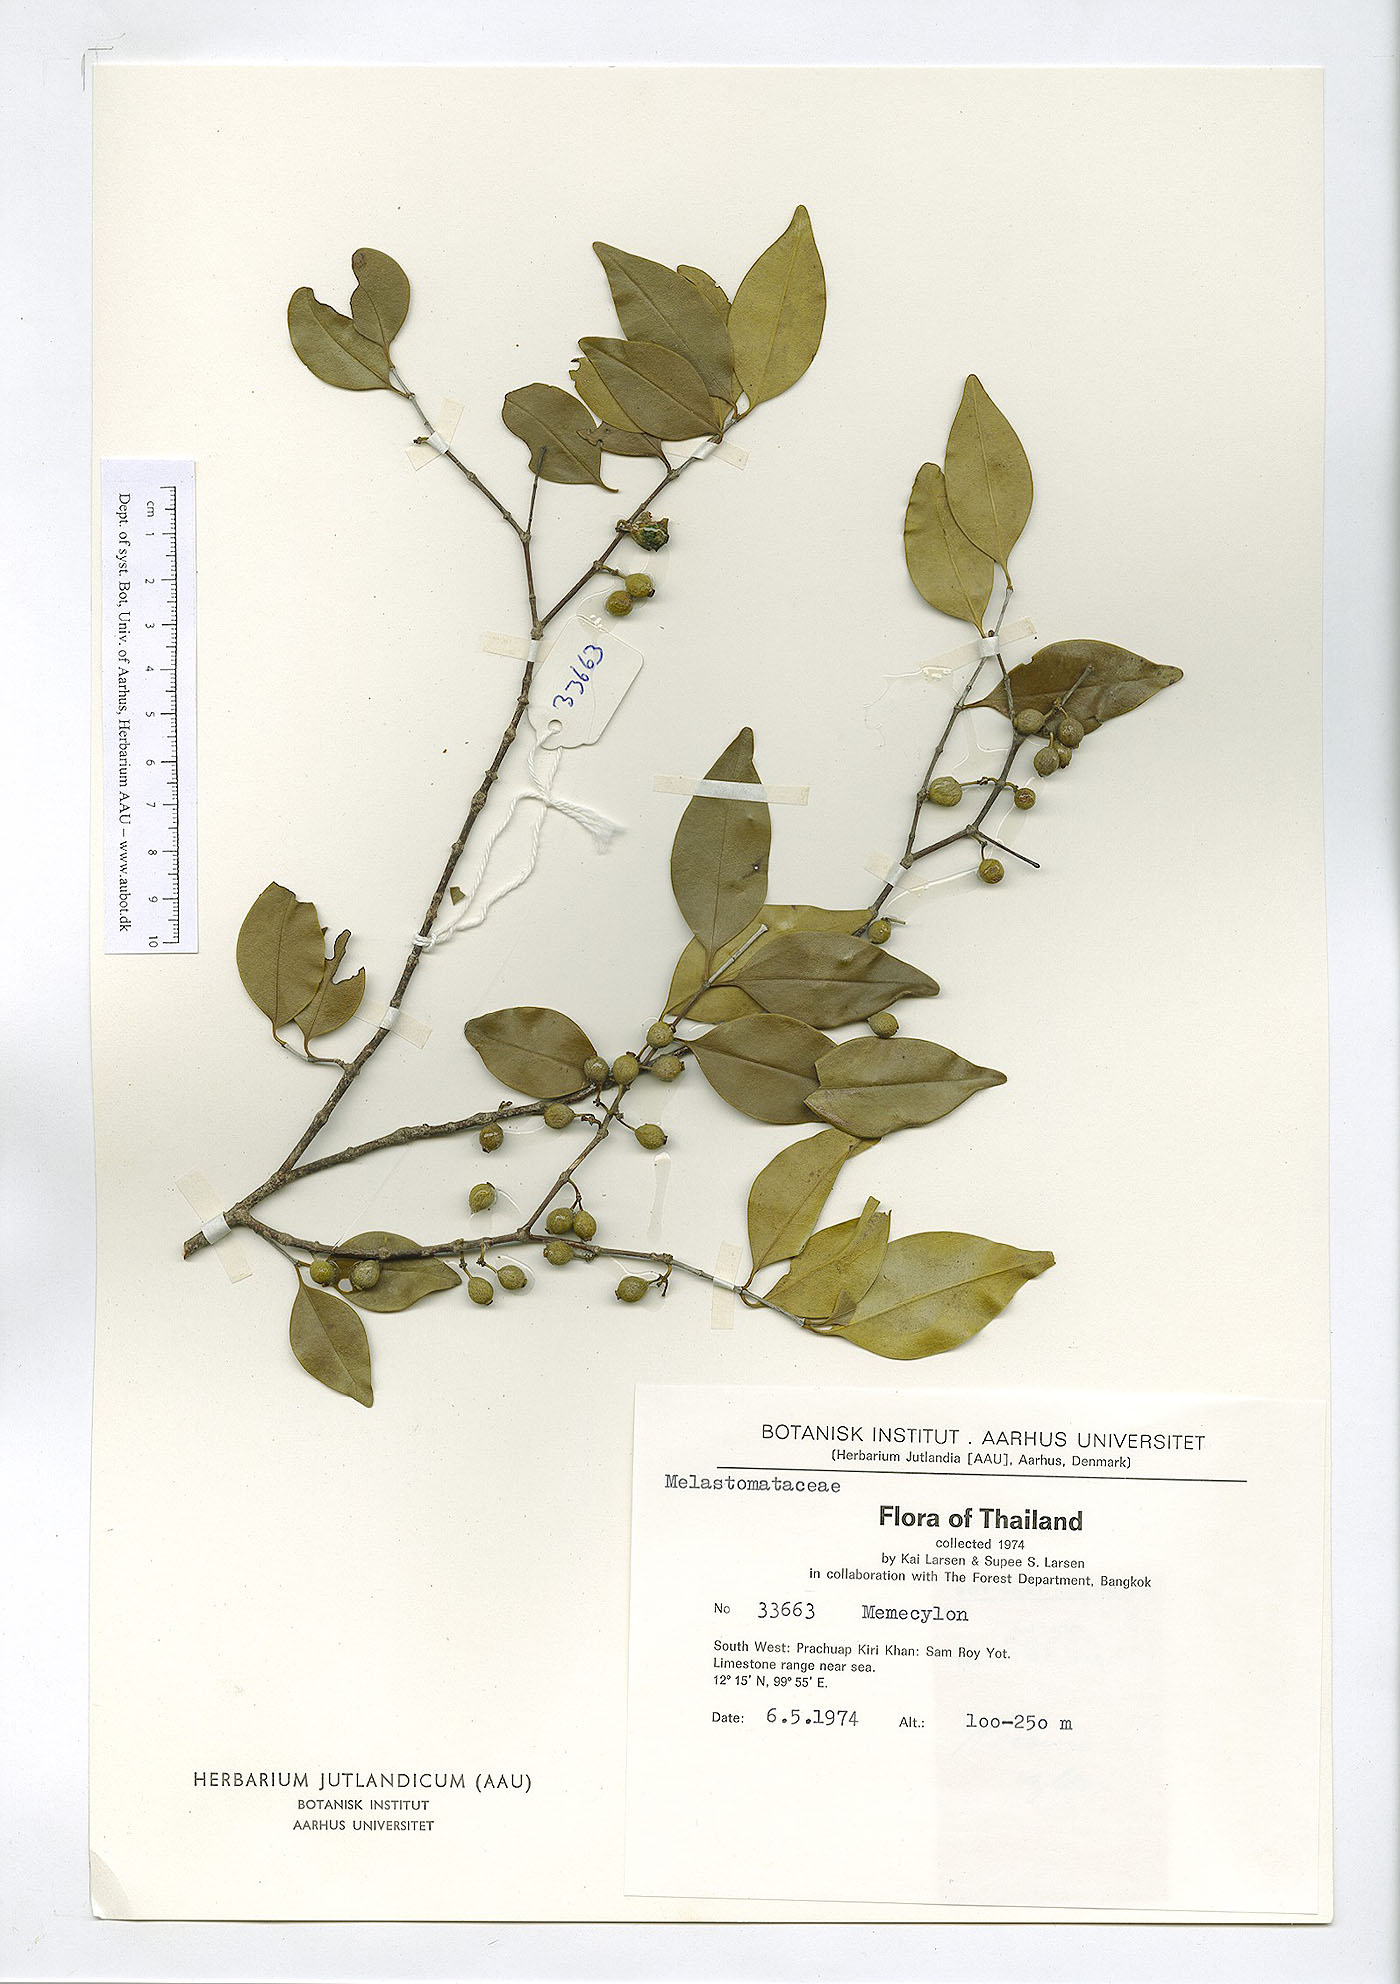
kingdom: Plantae
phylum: Tracheophyta
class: Magnoliopsida
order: Myrtales
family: Melastomataceae
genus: Memecylon
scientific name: Memecylon edule
